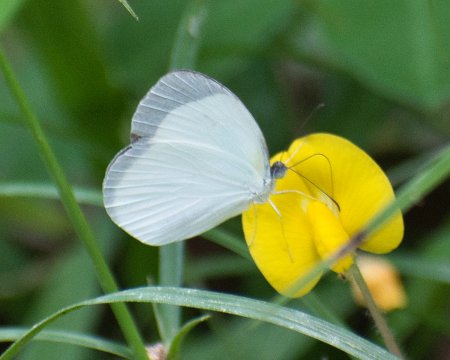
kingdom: Animalia
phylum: Arthropoda
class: Insecta
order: Lepidoptera
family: Pieridae
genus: Eurema
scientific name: Eurema albula
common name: White Yellow
